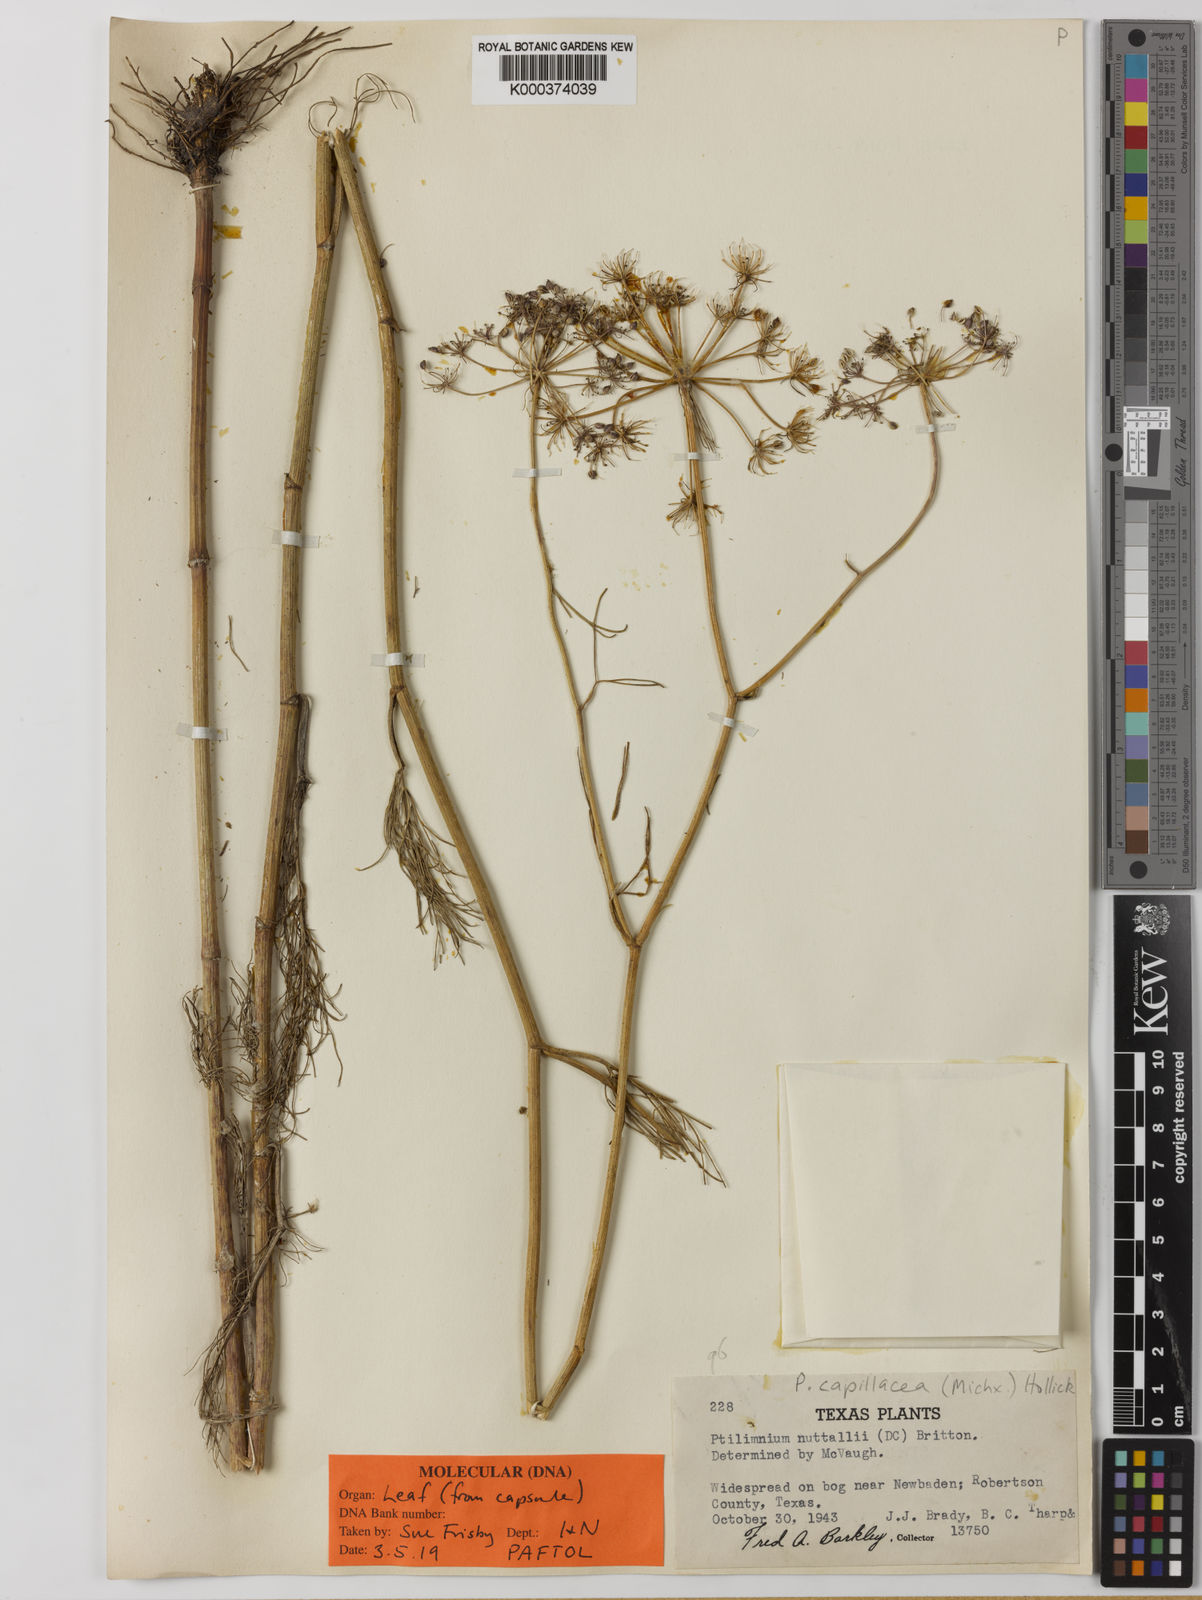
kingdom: Plantae
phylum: Tracheophyta
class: Magnoliopsida
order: Apiales
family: Apiaceae
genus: Ptilimnium
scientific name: Ptilimnium
